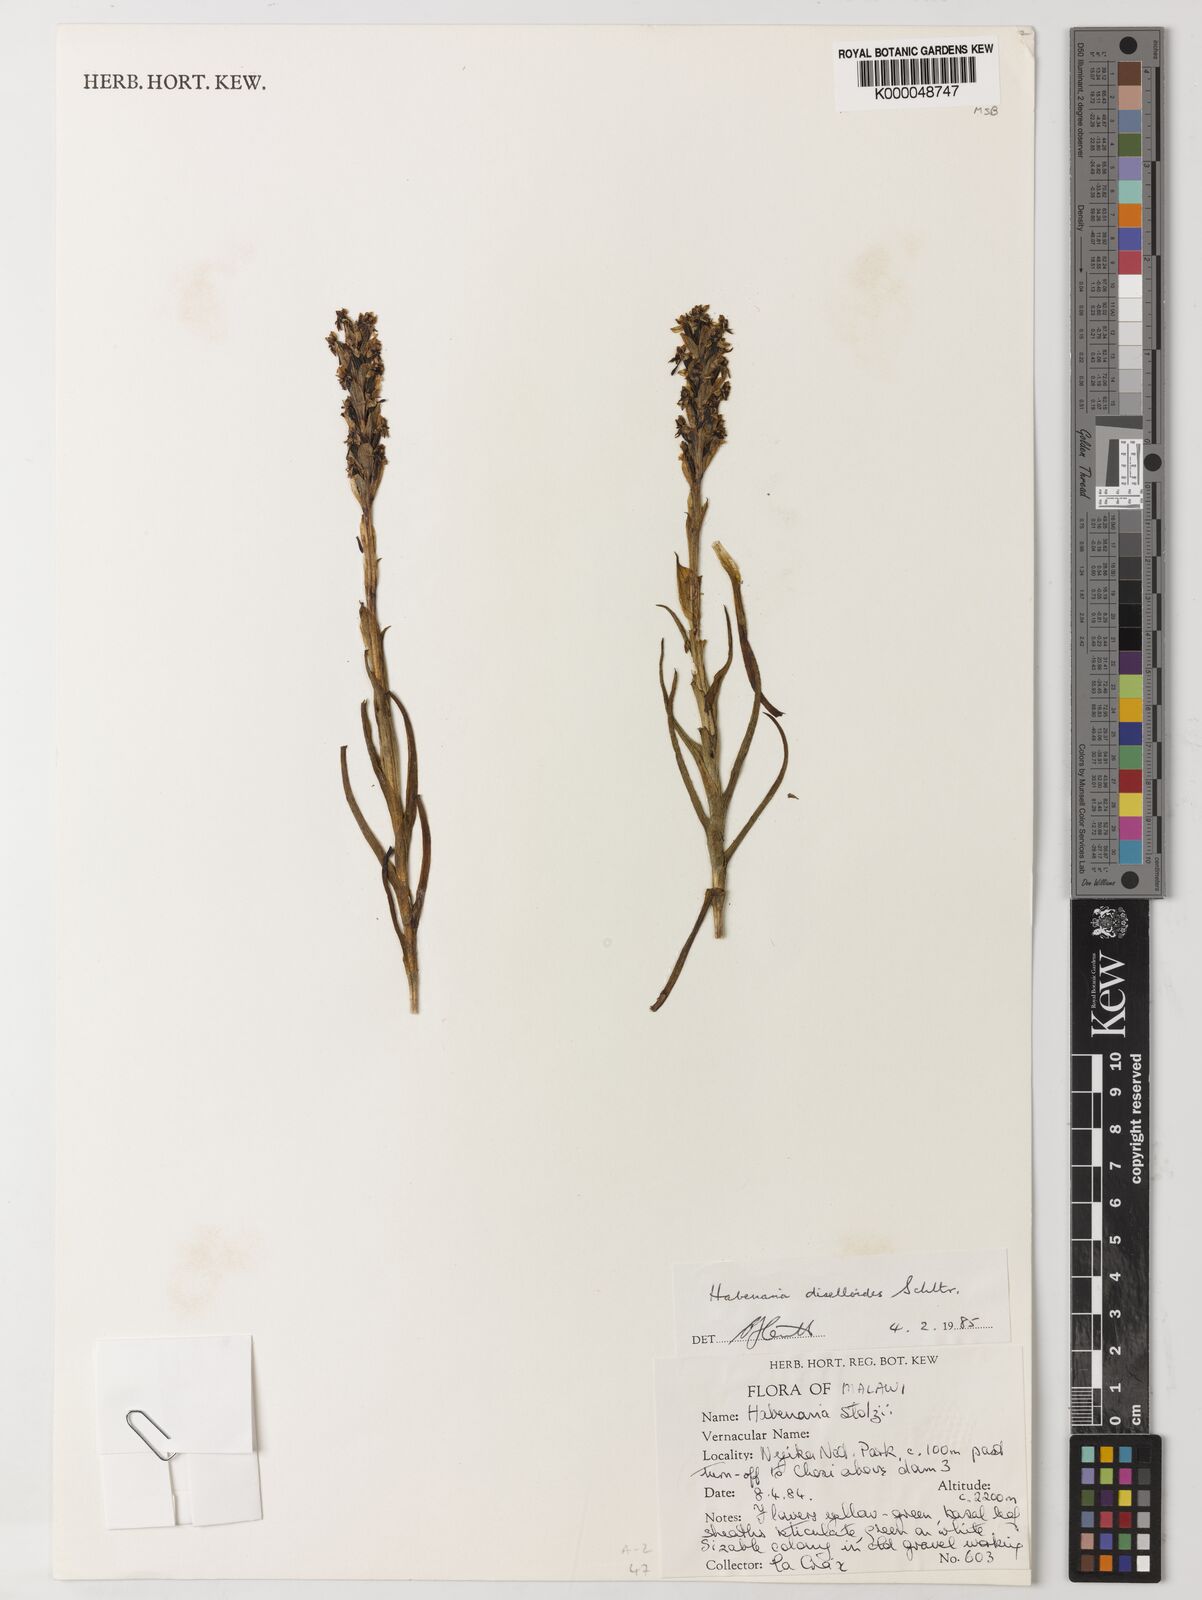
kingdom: Plantae
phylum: Tracheophyta
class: Liliopsida
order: Asparagales
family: Orchidaceae
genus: Habenaria
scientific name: Habenaria diselloides
